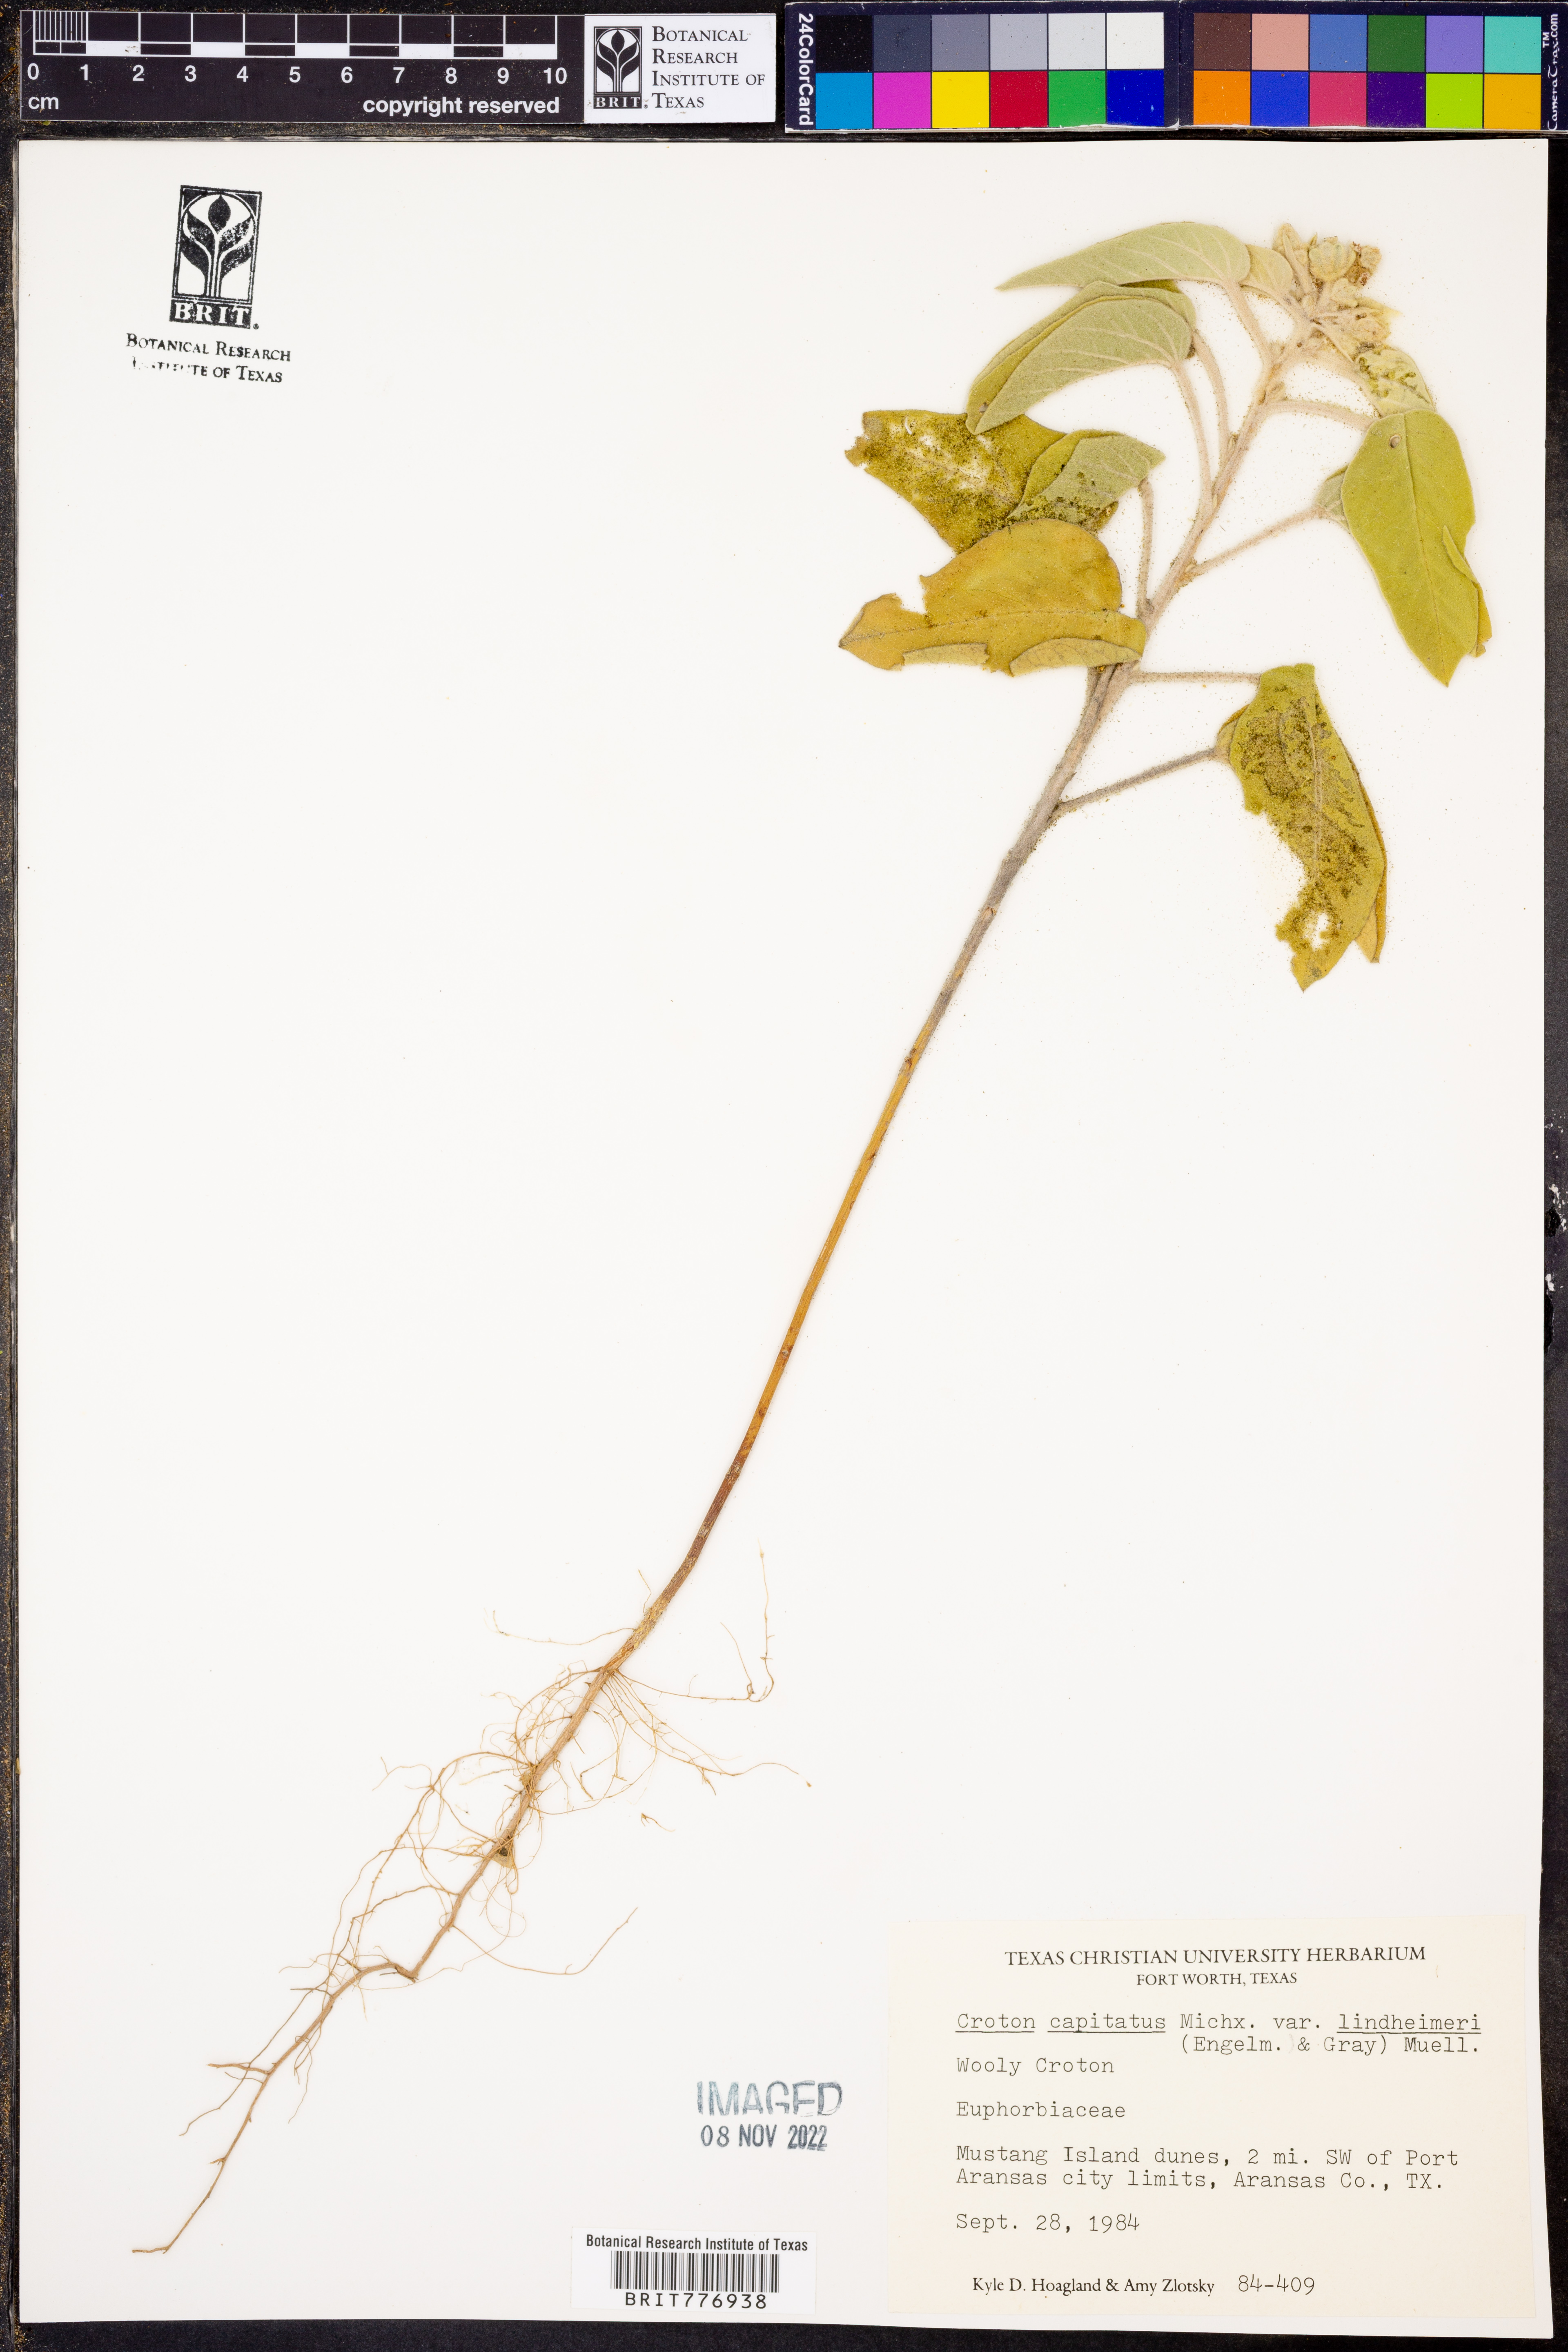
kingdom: Plantae
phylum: Tracheophyta
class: Magnoliopsida
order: Malpighiales
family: Euphorbiaceae
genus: Croton
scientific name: Croton lindheimeri
